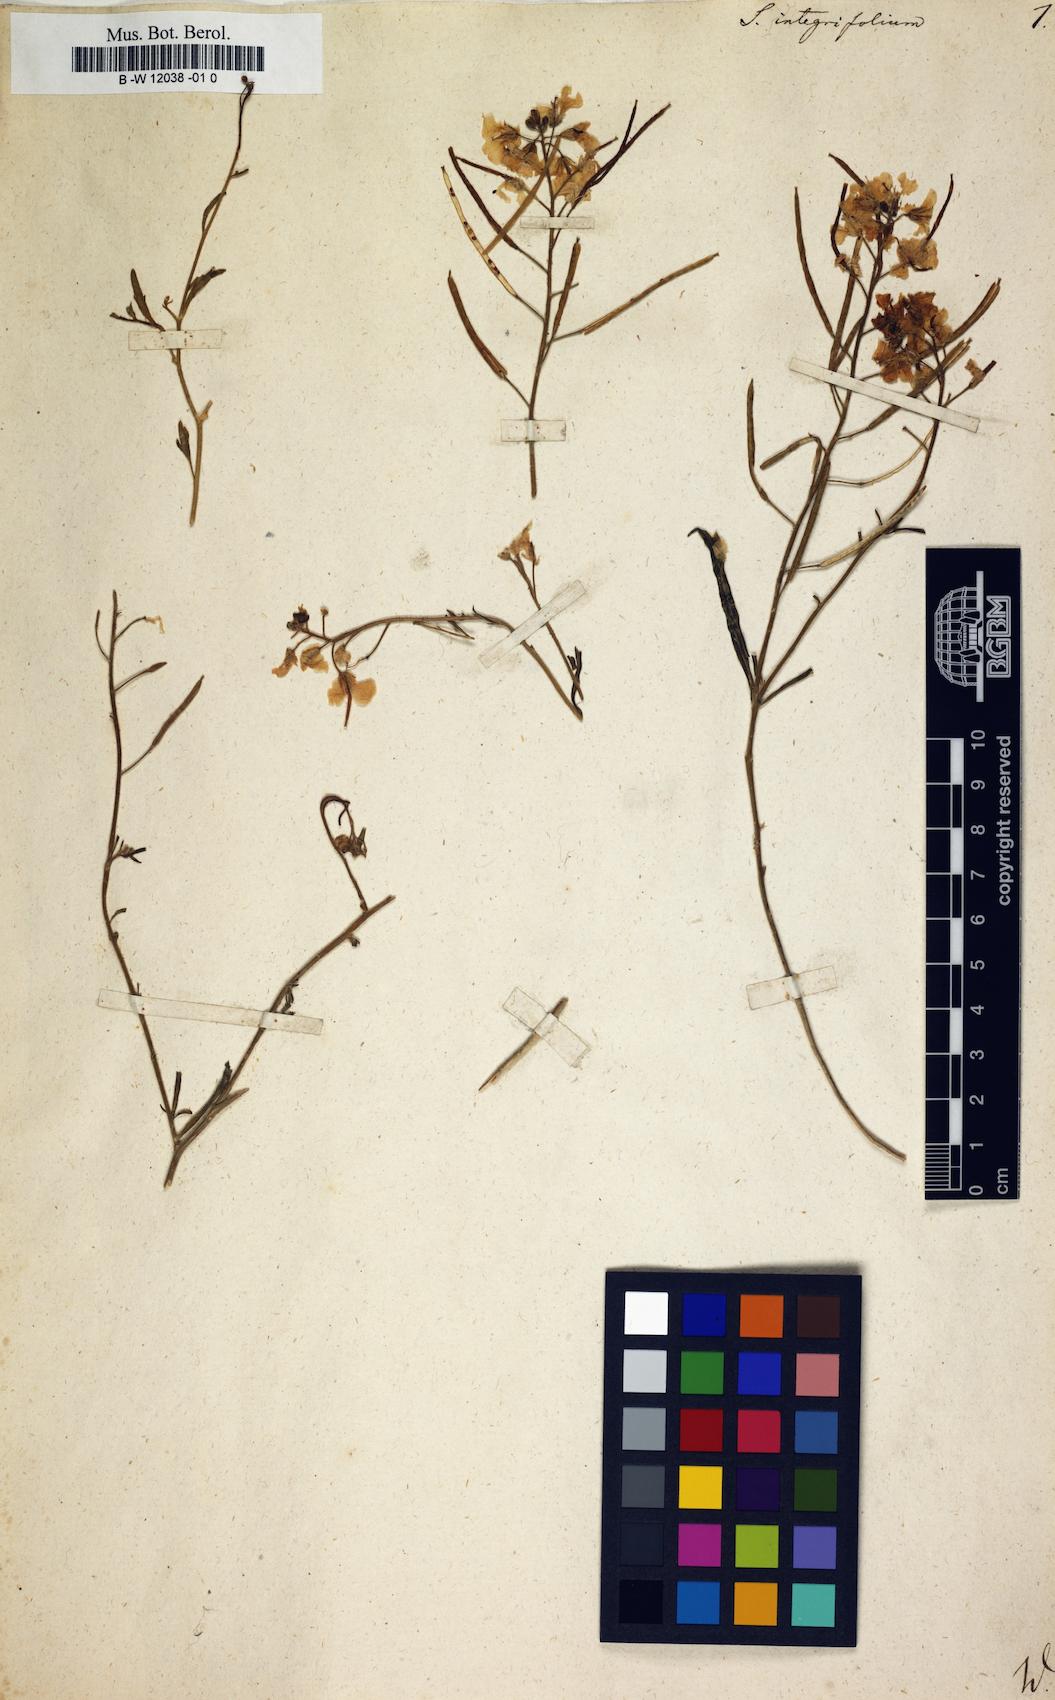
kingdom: Plantae
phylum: Tracheophyta
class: Magnoliopsida
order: Brassicales
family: Brassicaceae
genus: Sisymbrium
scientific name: Sisymbrium integrifolium
